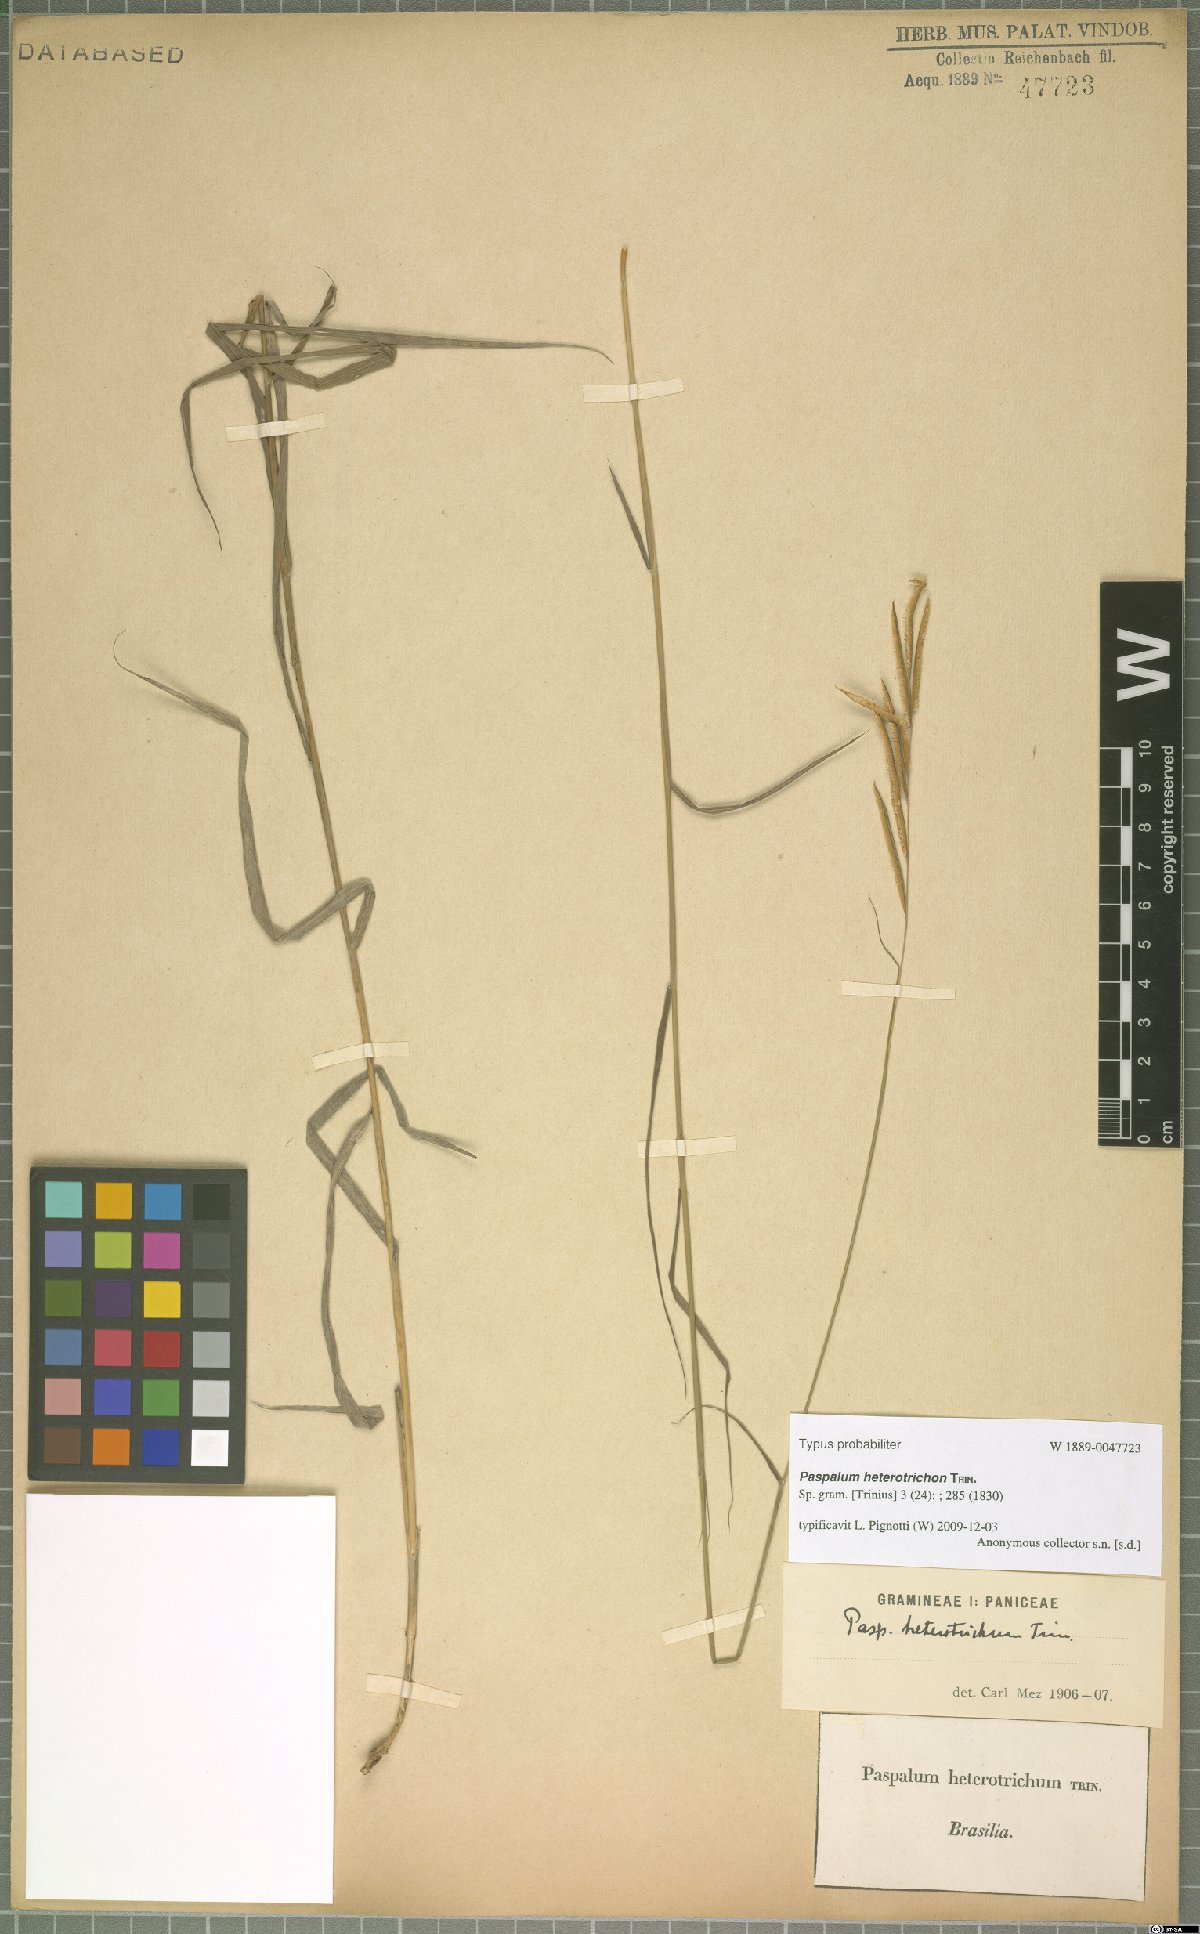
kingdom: Plantae
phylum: Tracheophyta
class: Liliopsida
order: Poales
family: Poaceae
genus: Paspalum
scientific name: Paspalum heterotrichon
